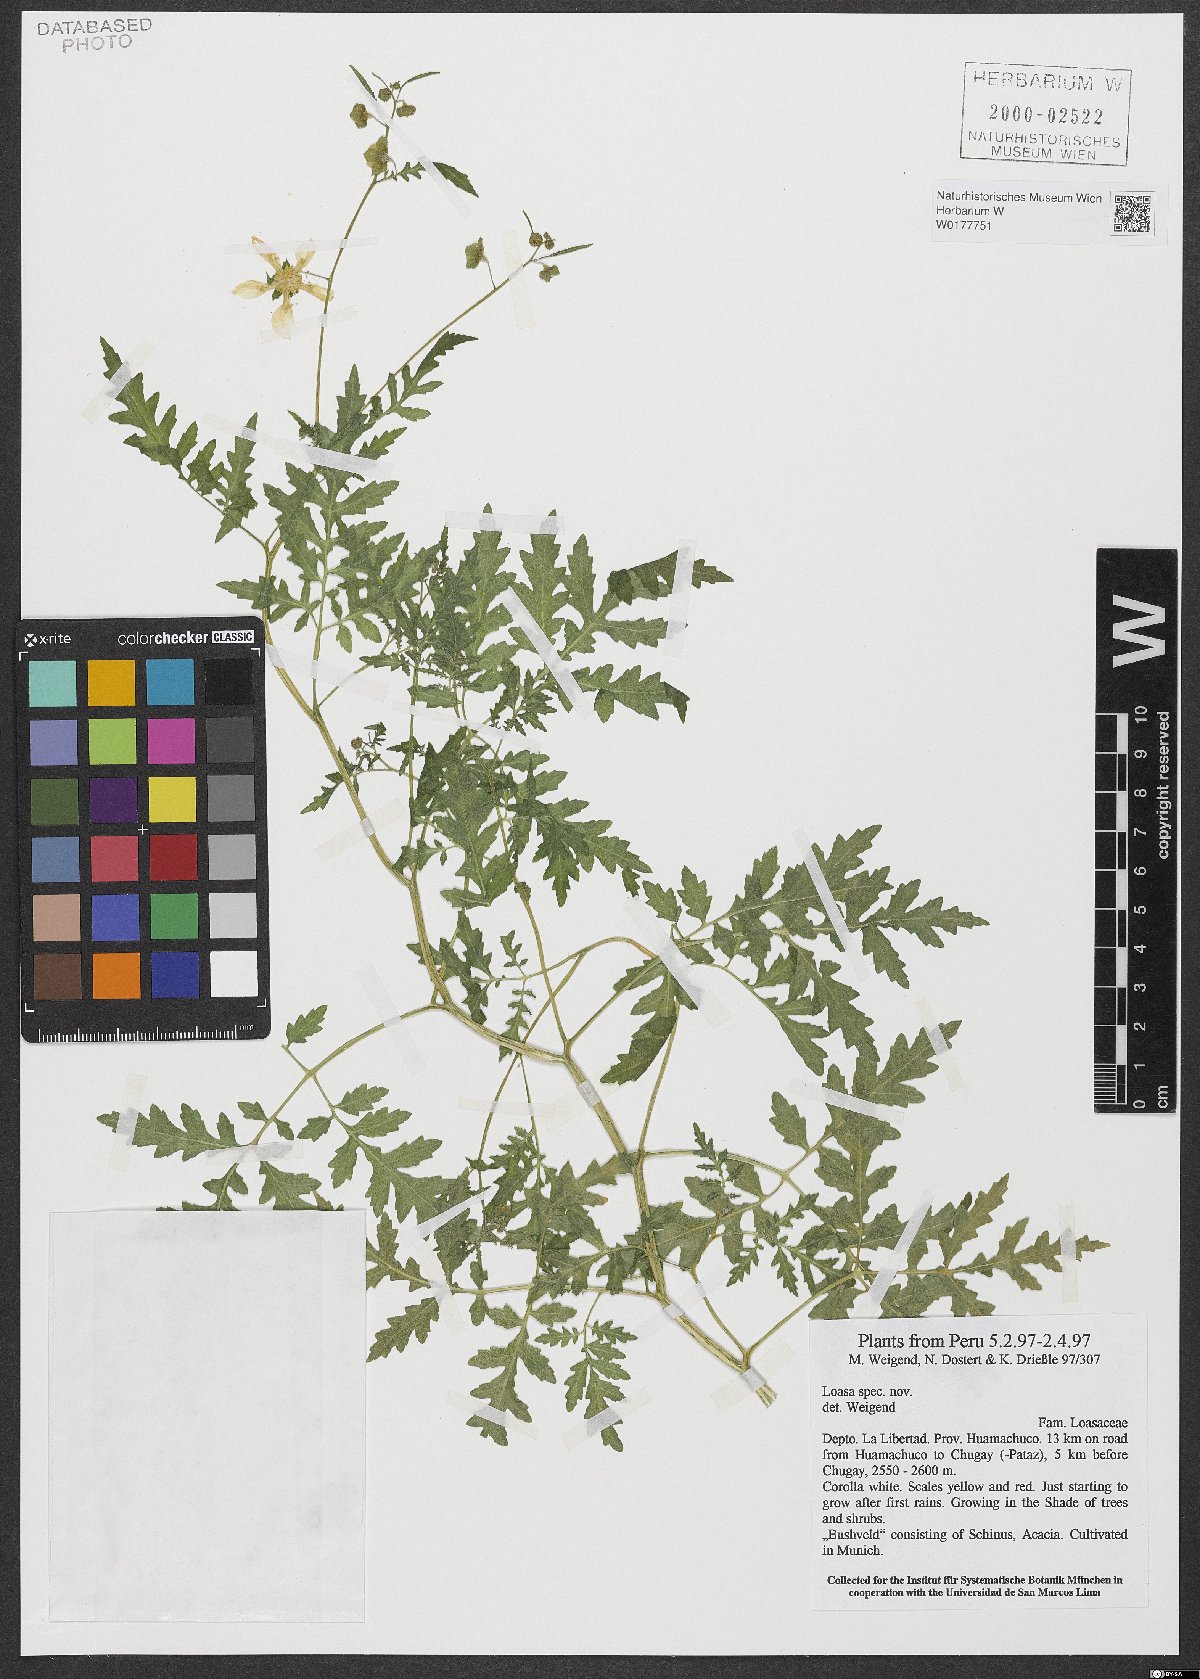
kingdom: Plantae
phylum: Tracheophyta
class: Magnoliopsida
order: Cornales
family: Loasaceae
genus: Loasa
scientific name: Loasa
